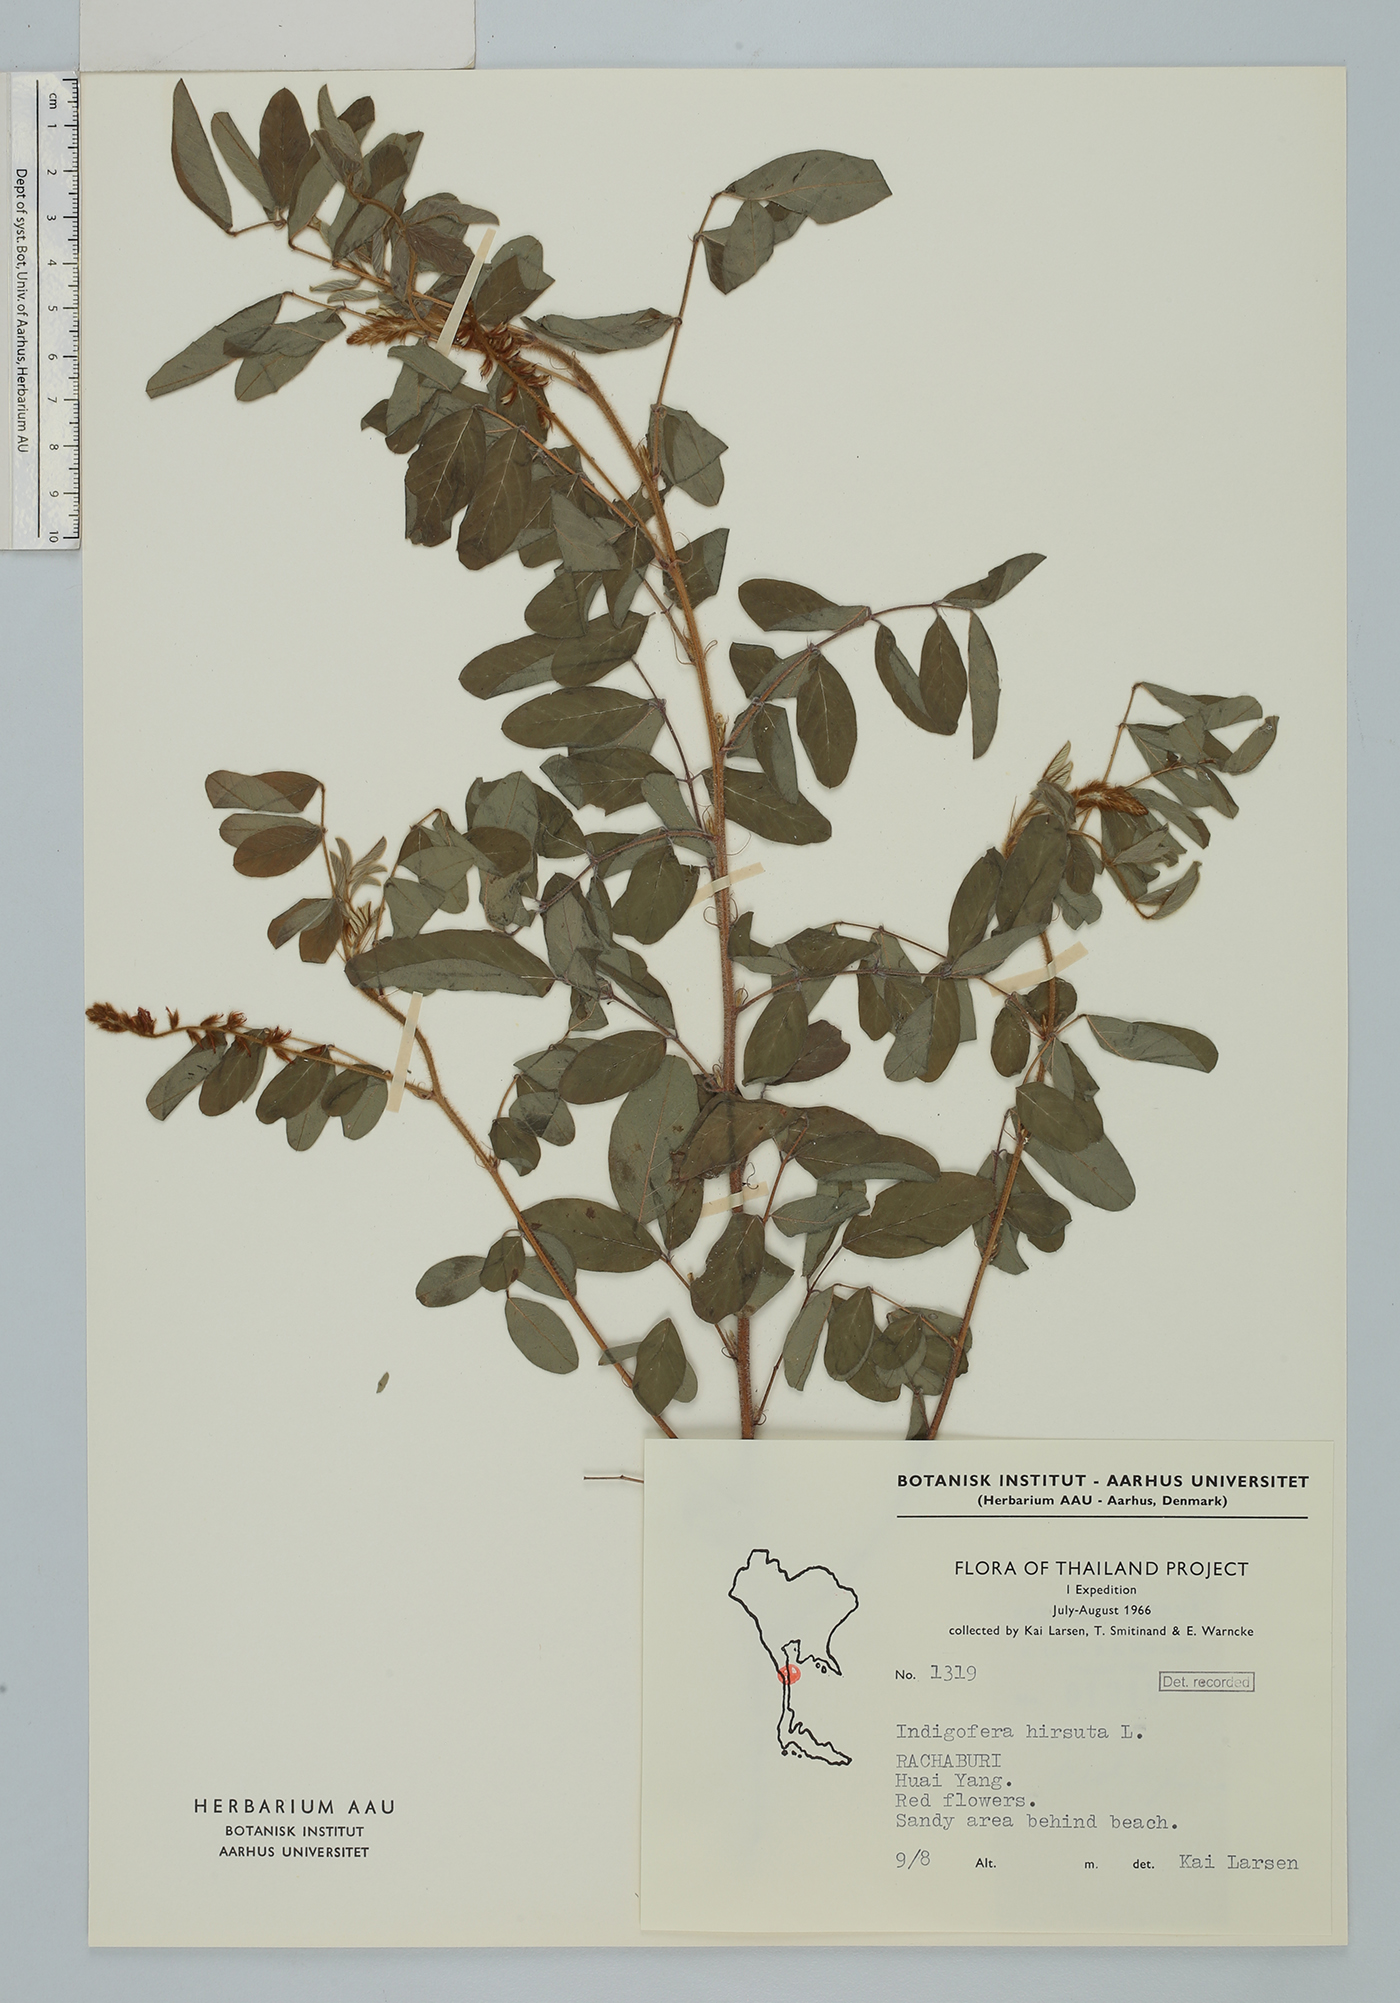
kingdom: Plantae
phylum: Tracheophyta
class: Magnoliopsida
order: Fabales
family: Fabaceae
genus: Indigofera
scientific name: Indigofera hirsuta
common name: Hairy indigo
